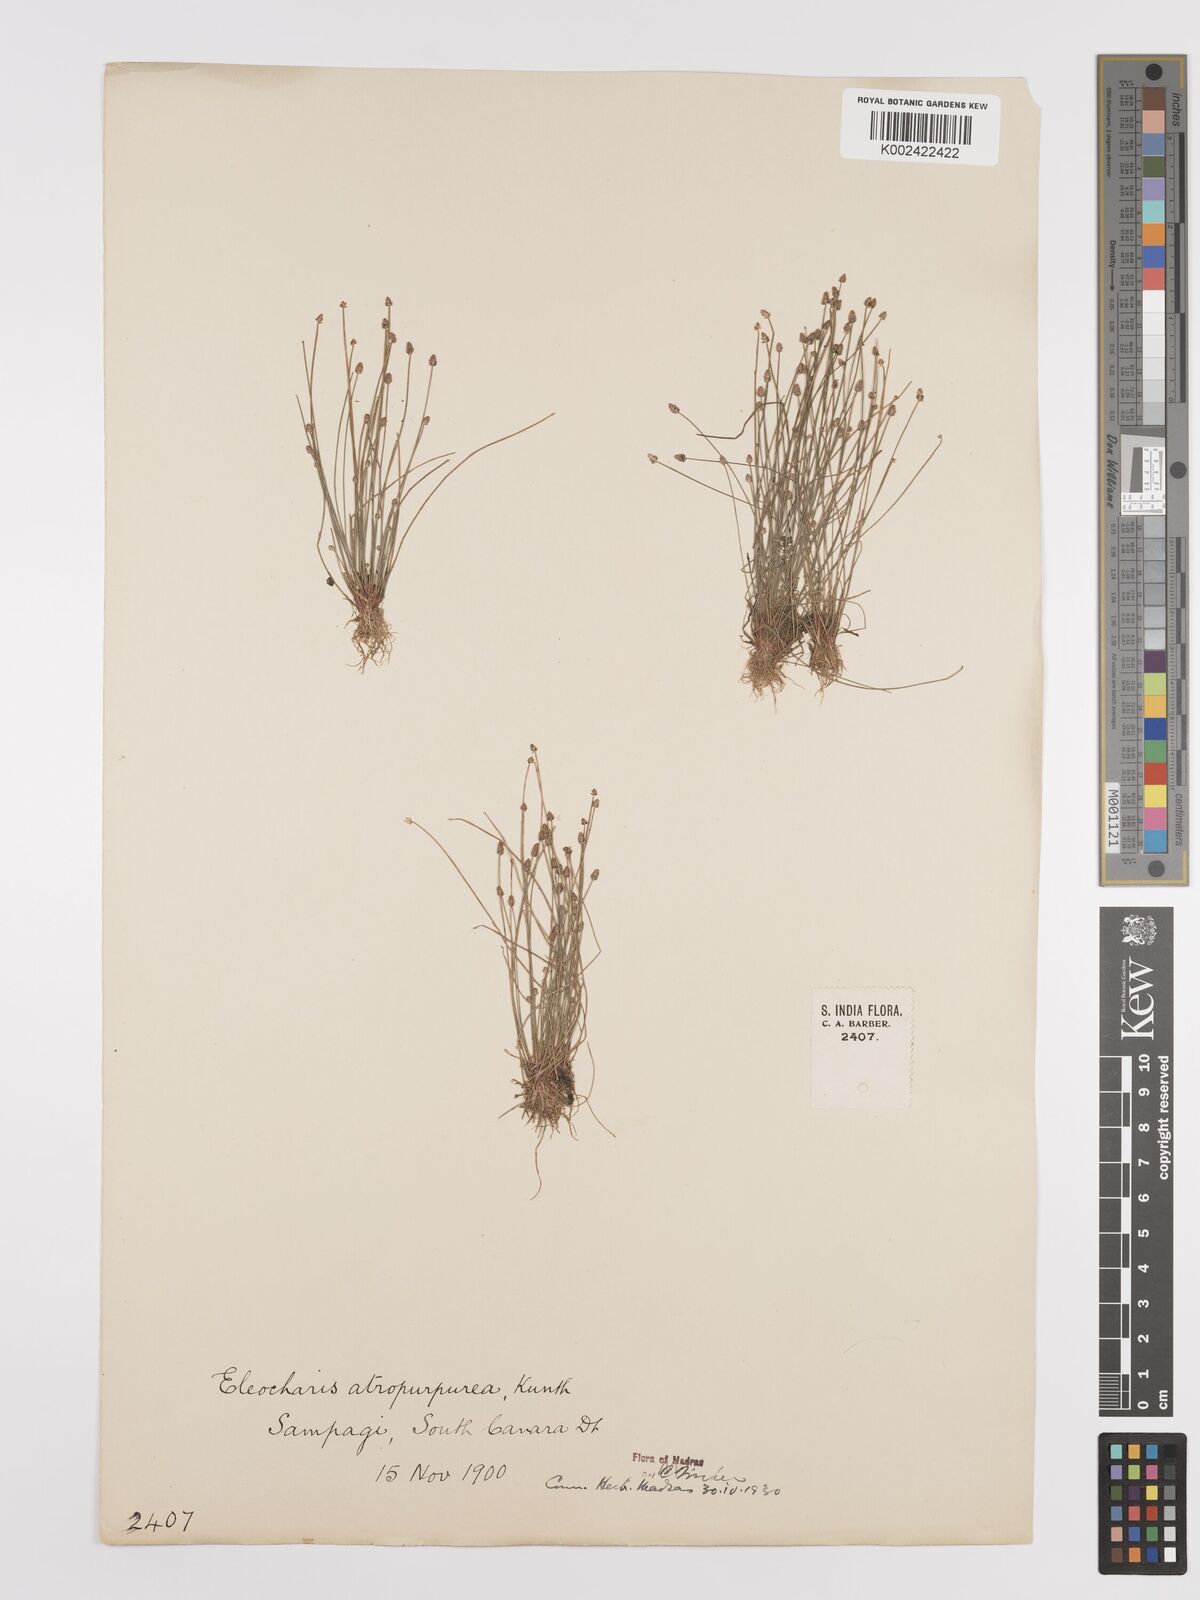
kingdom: Plantae
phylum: Tracheophyta
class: Liliopsida
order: Poales
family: Cyperaceae
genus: Eleocharis
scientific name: Eleocharis atropurpurea
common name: Purple spikerush
